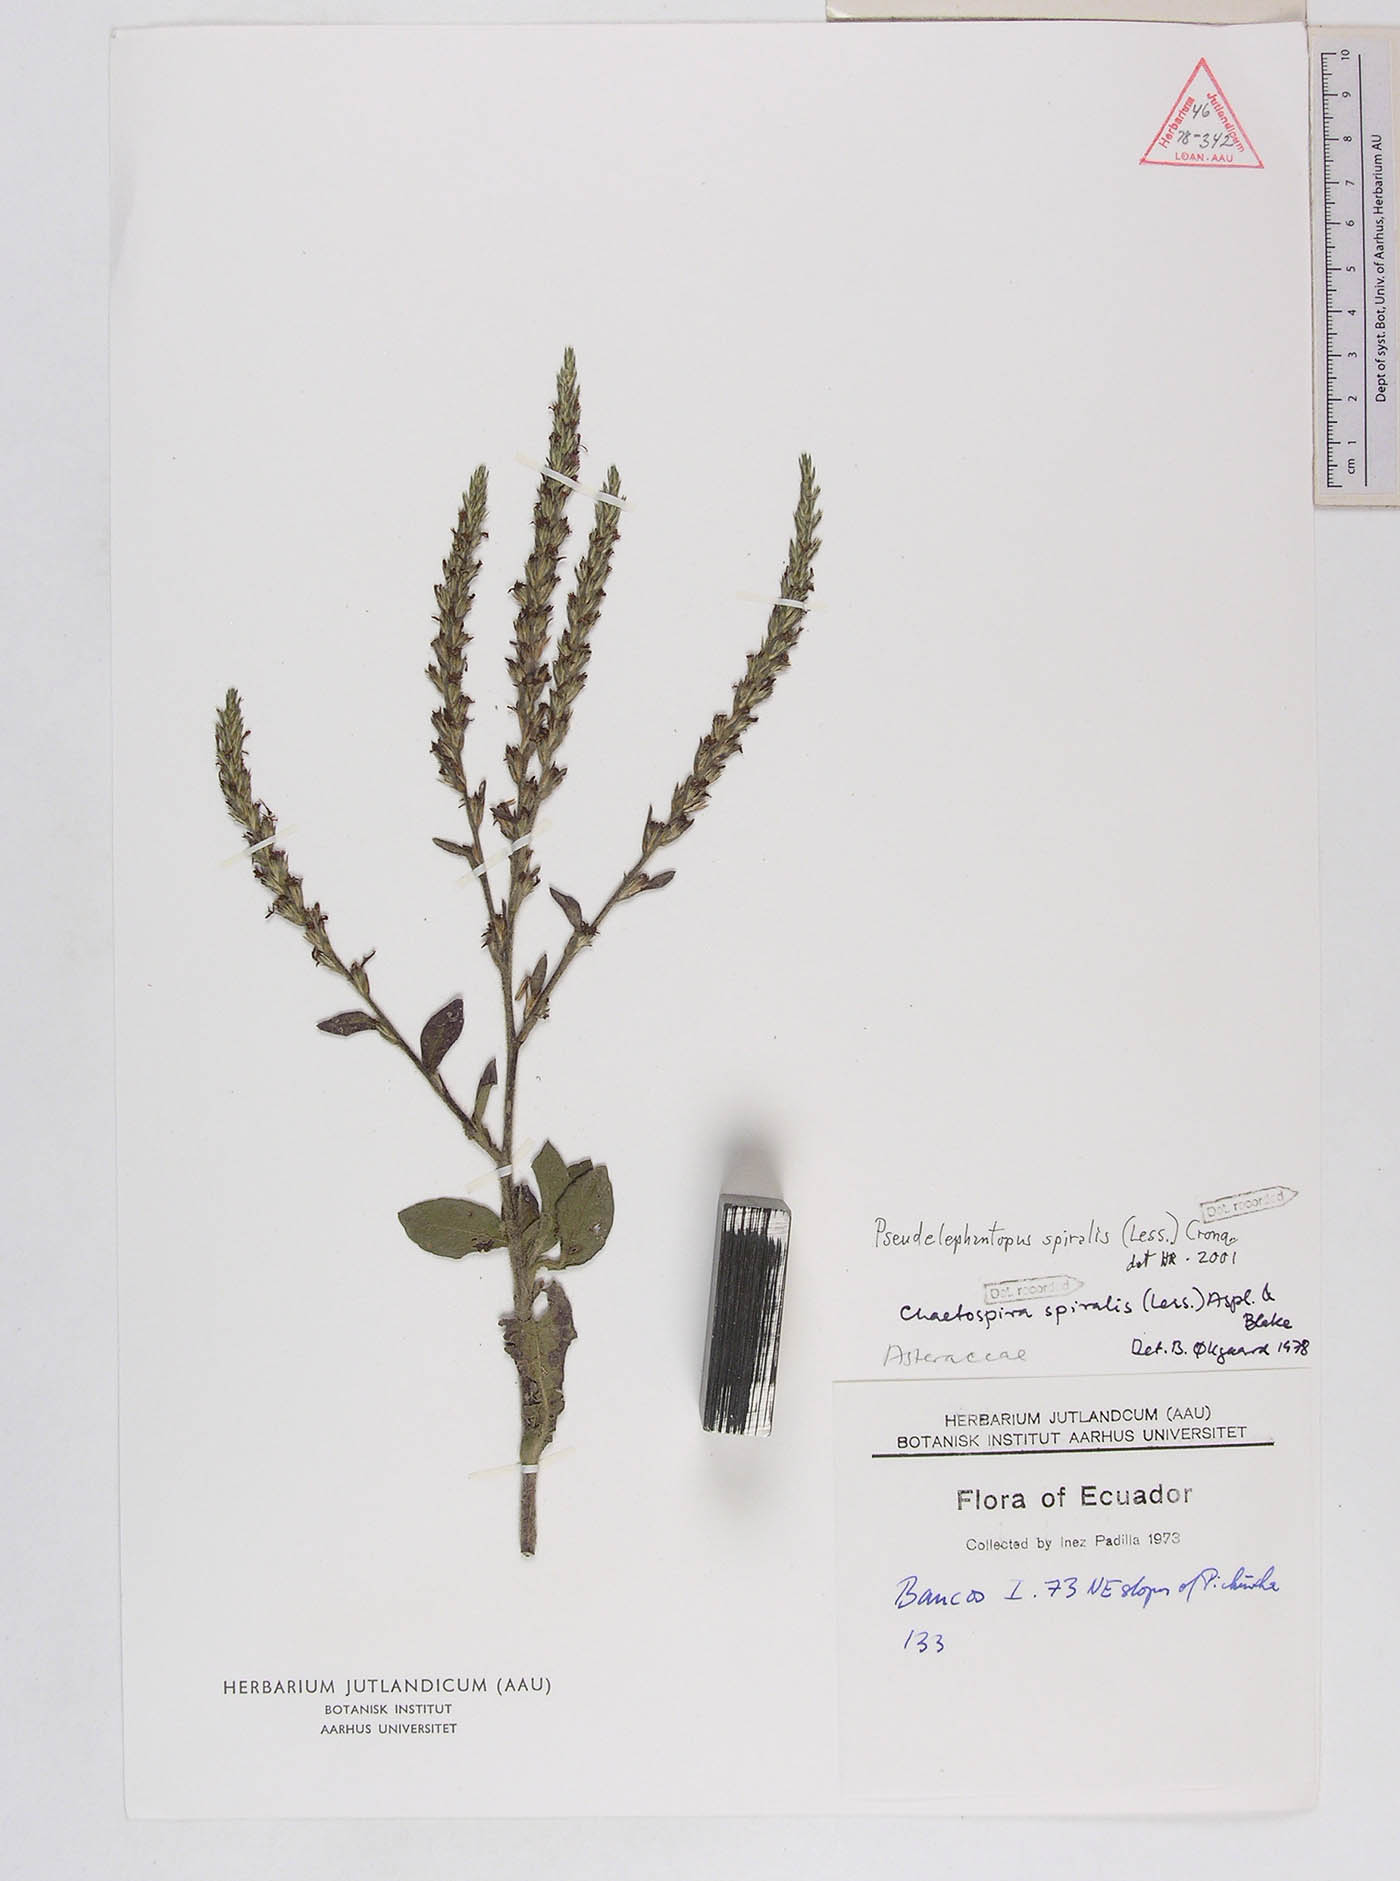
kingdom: Plantae
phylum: Tracheophyta
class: Magnoliopsida
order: Asterales
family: Asteraceae
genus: Pseudelephantopus
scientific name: Pseudelephantopus spiralis
